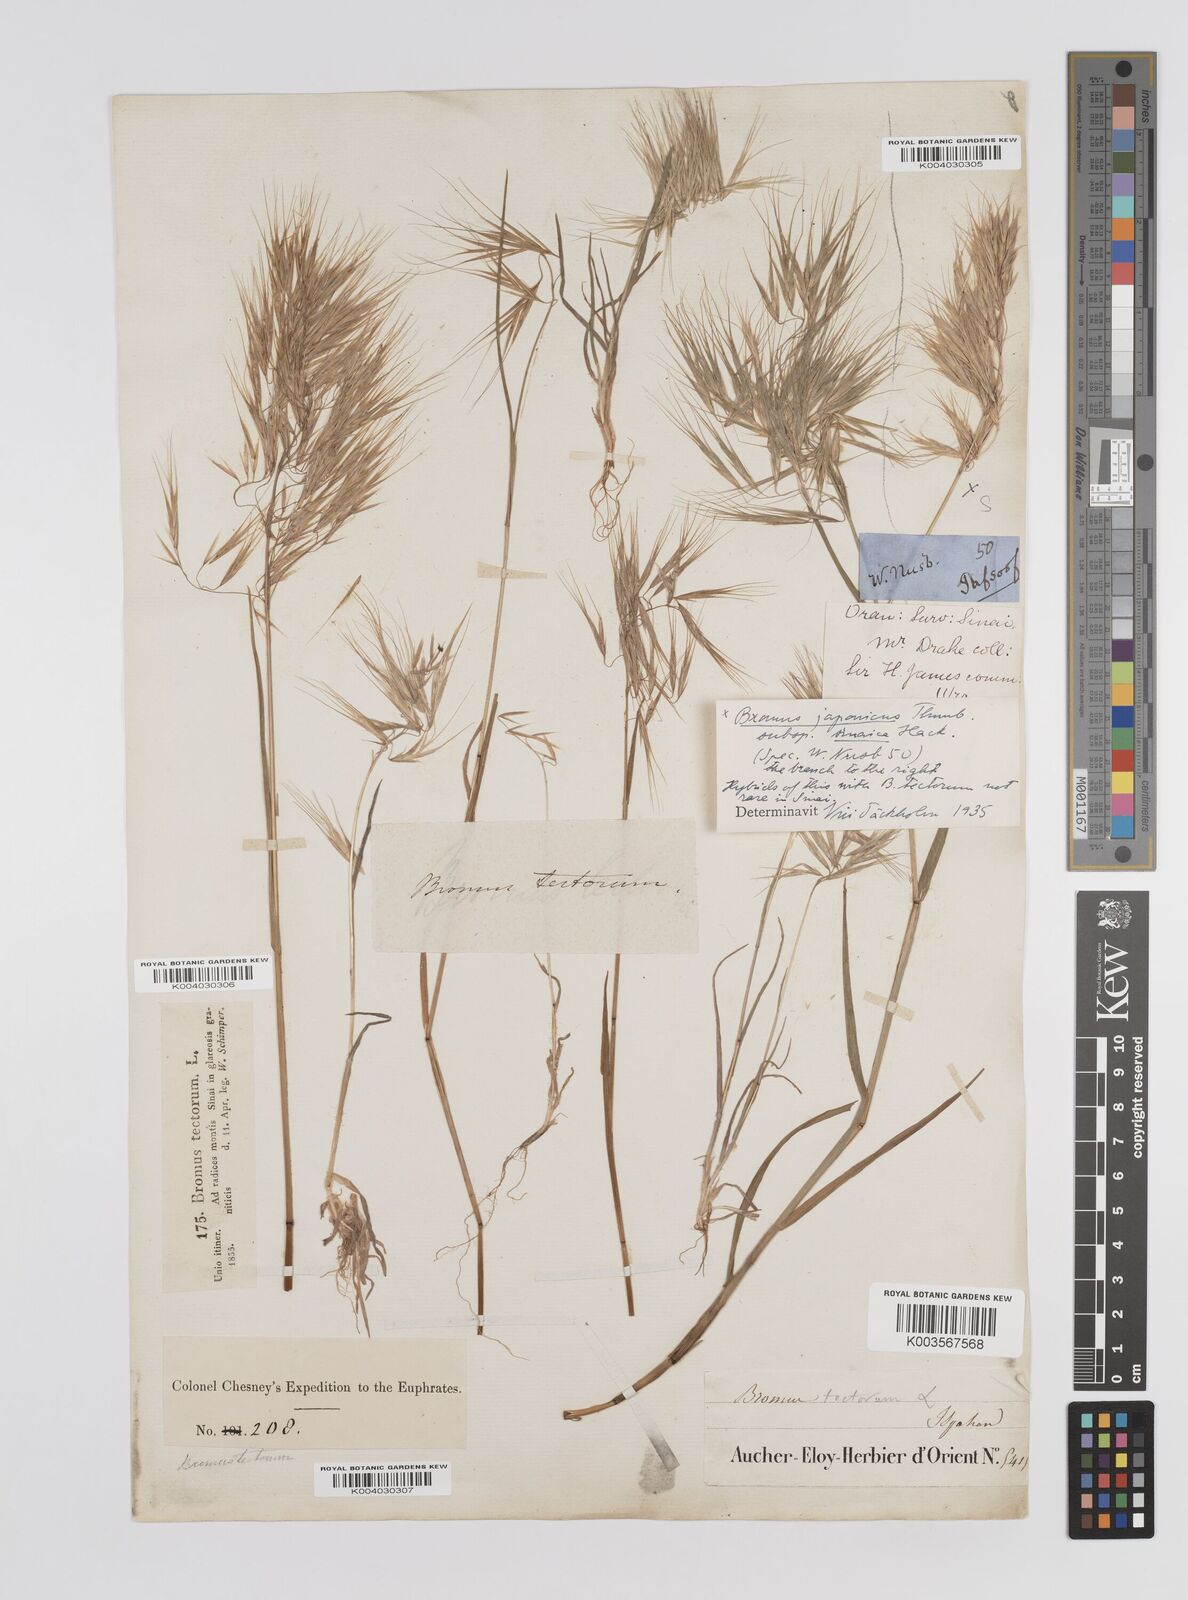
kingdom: Plantae
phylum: Tracheophyta
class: Liliopsida
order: Poales
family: Poaceae
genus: Bromus
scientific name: Bromus pectinatus
